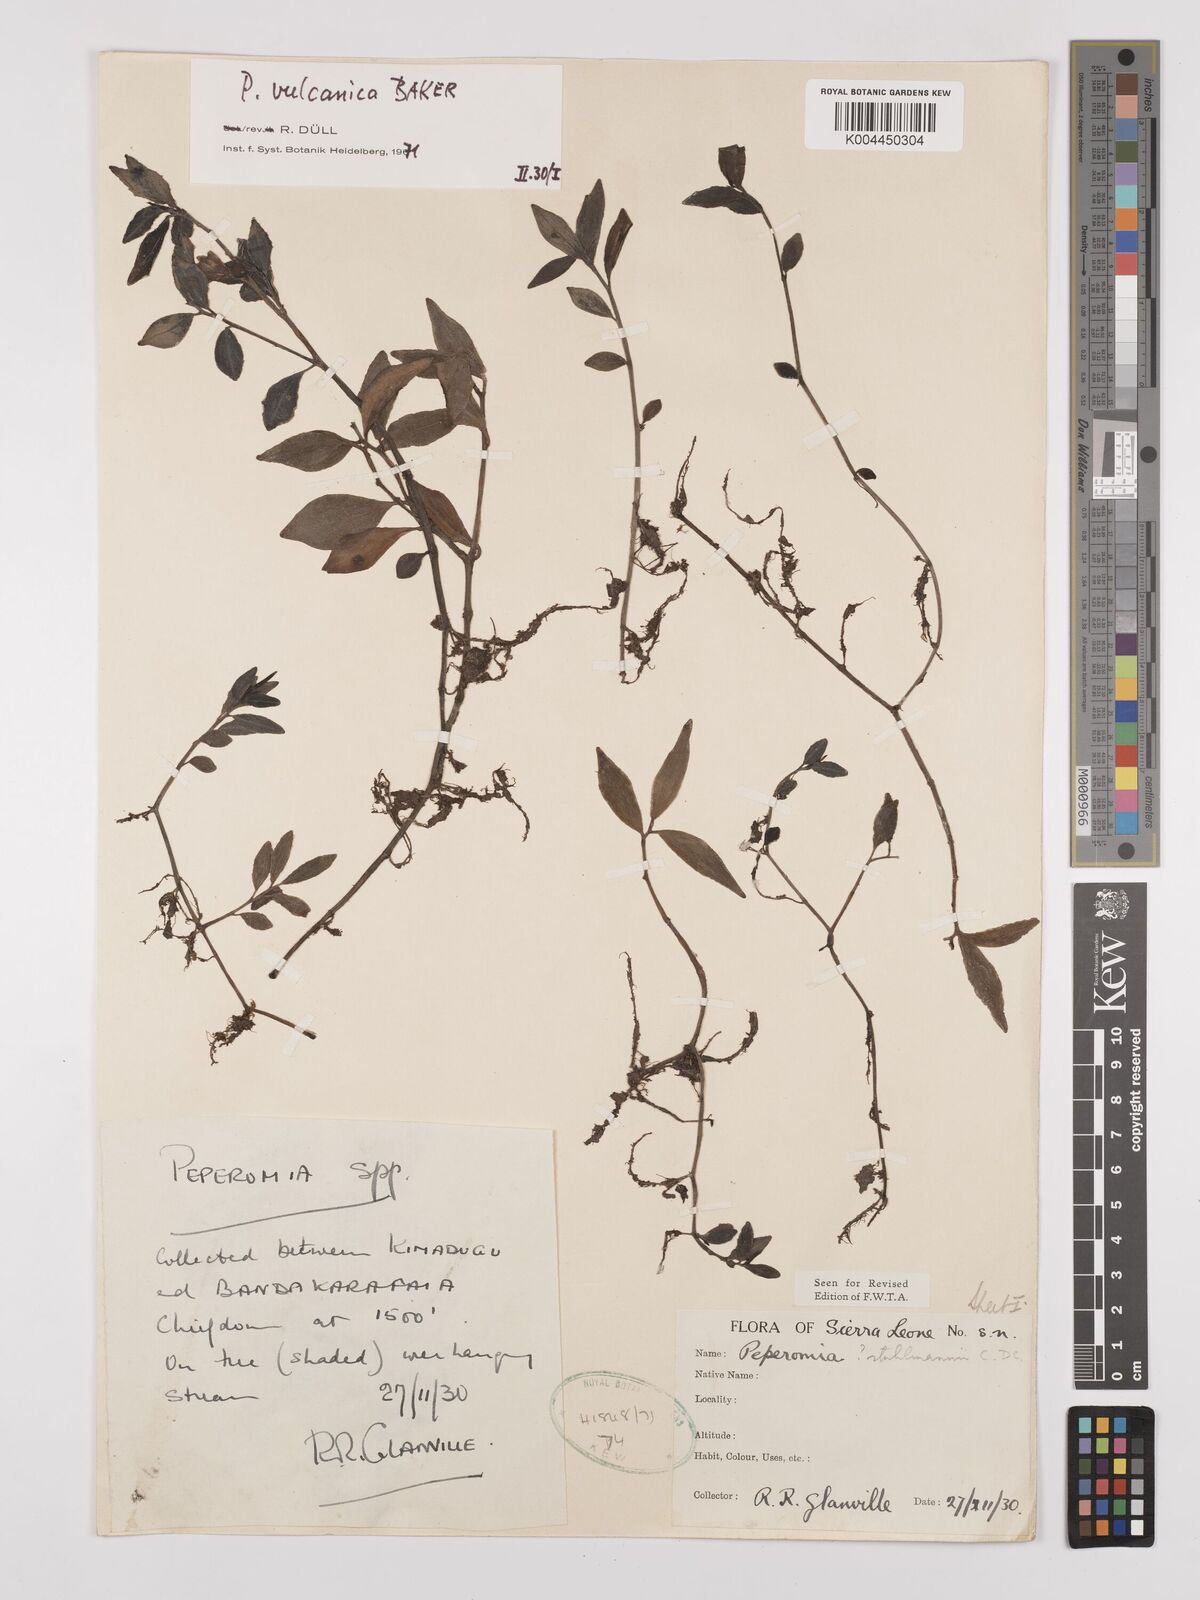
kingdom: Plantae
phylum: Tracheophyta
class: Magnoliopsida
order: Piperales
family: Piperaceae
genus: Peperomia
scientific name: Peperomia vulcanica
